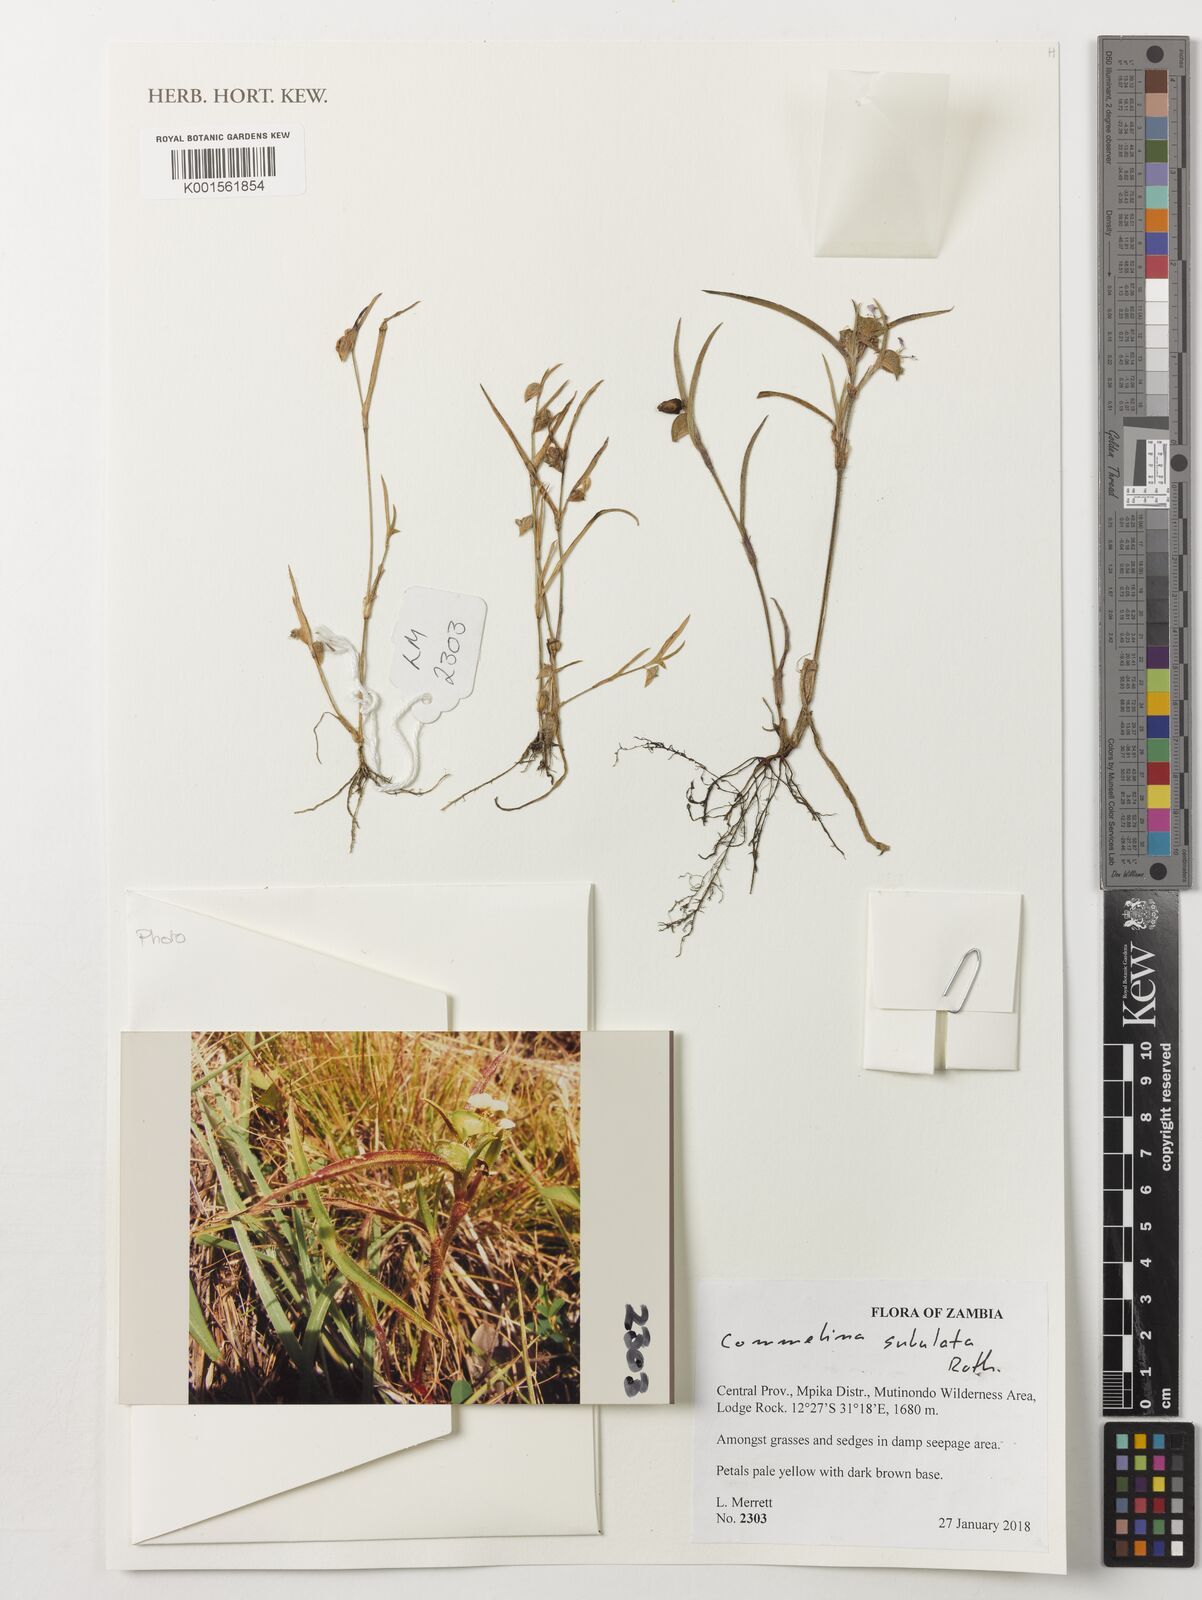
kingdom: Plantae
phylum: Tracheophyta
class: Liliopsida
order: Commelinales
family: Commelinaceae
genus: Commelina
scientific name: Commelina subulata
